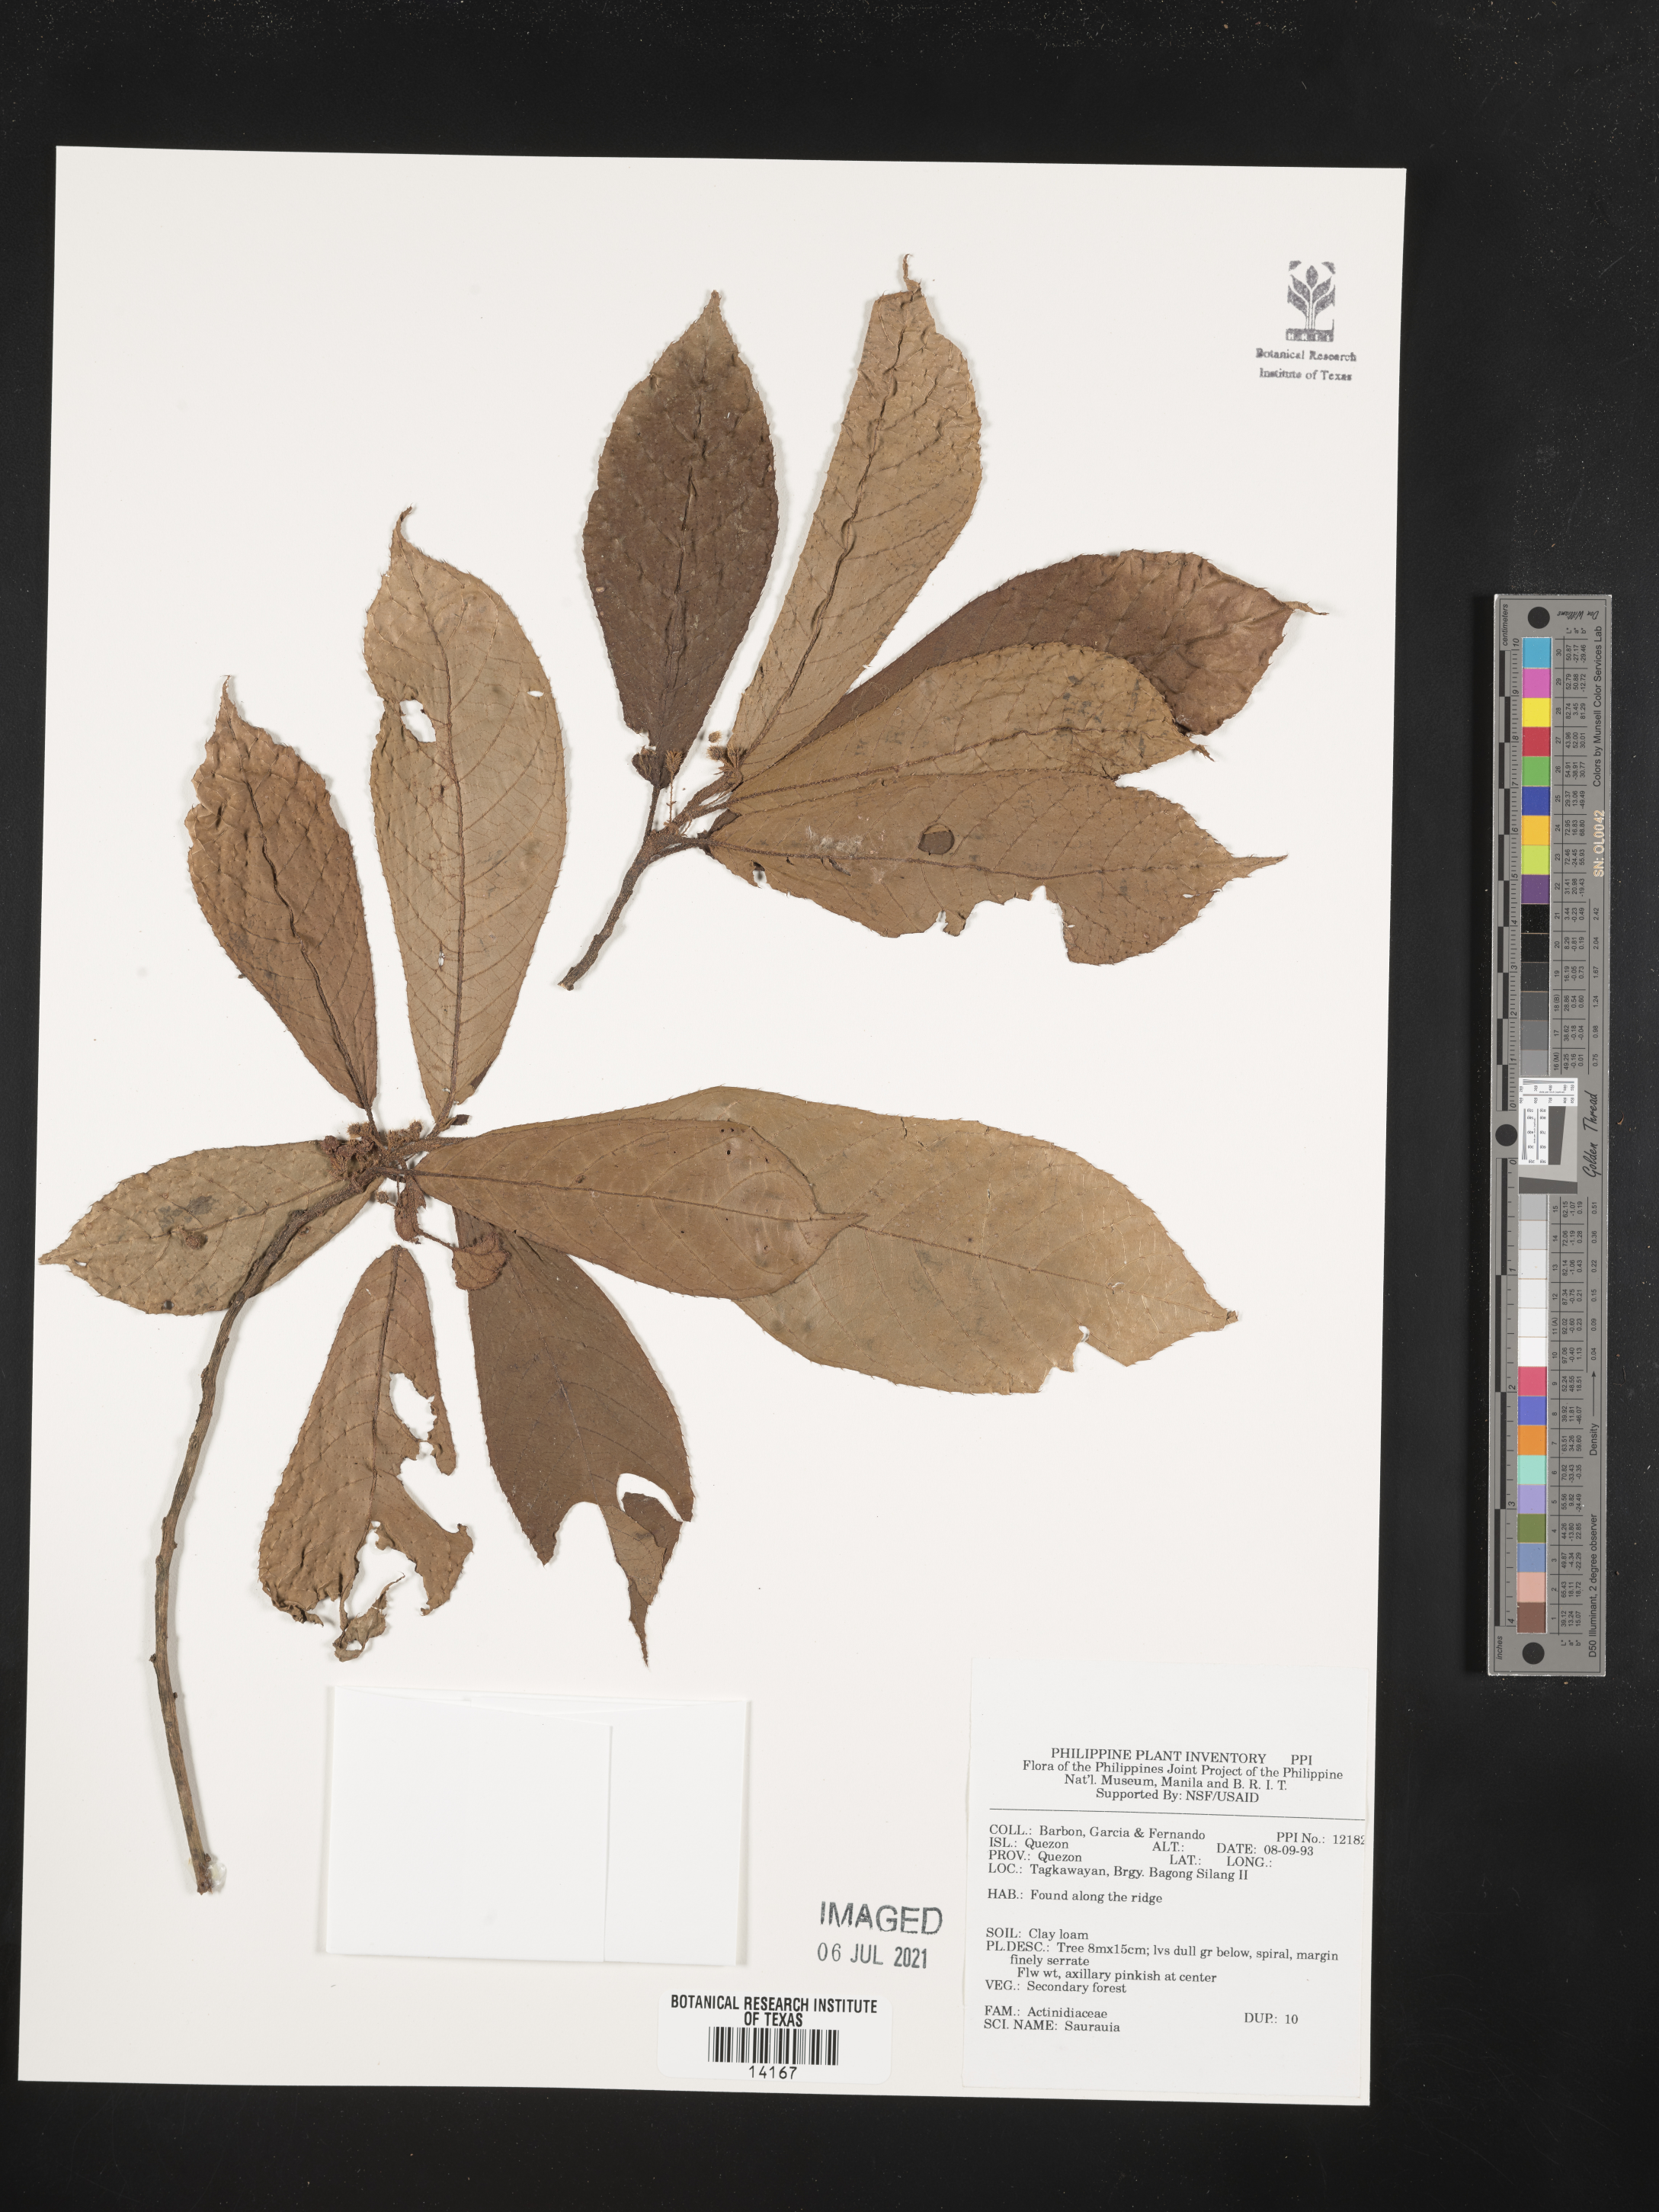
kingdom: Plantae
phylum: Tracheophyta
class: Magnoliopsida
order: Ericales
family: Actinidiaceae
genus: Saurauia
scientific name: Saurauia
